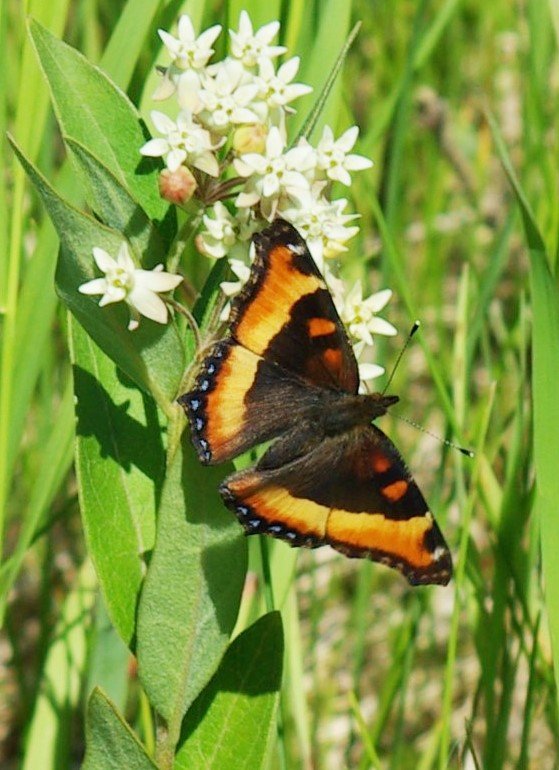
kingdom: Animalia
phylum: Arthropoda
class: Insecta
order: Lepidoptera
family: Nymphalidae
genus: Aglais
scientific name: Aglais milberti
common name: Milbert's Tortoiseshell
